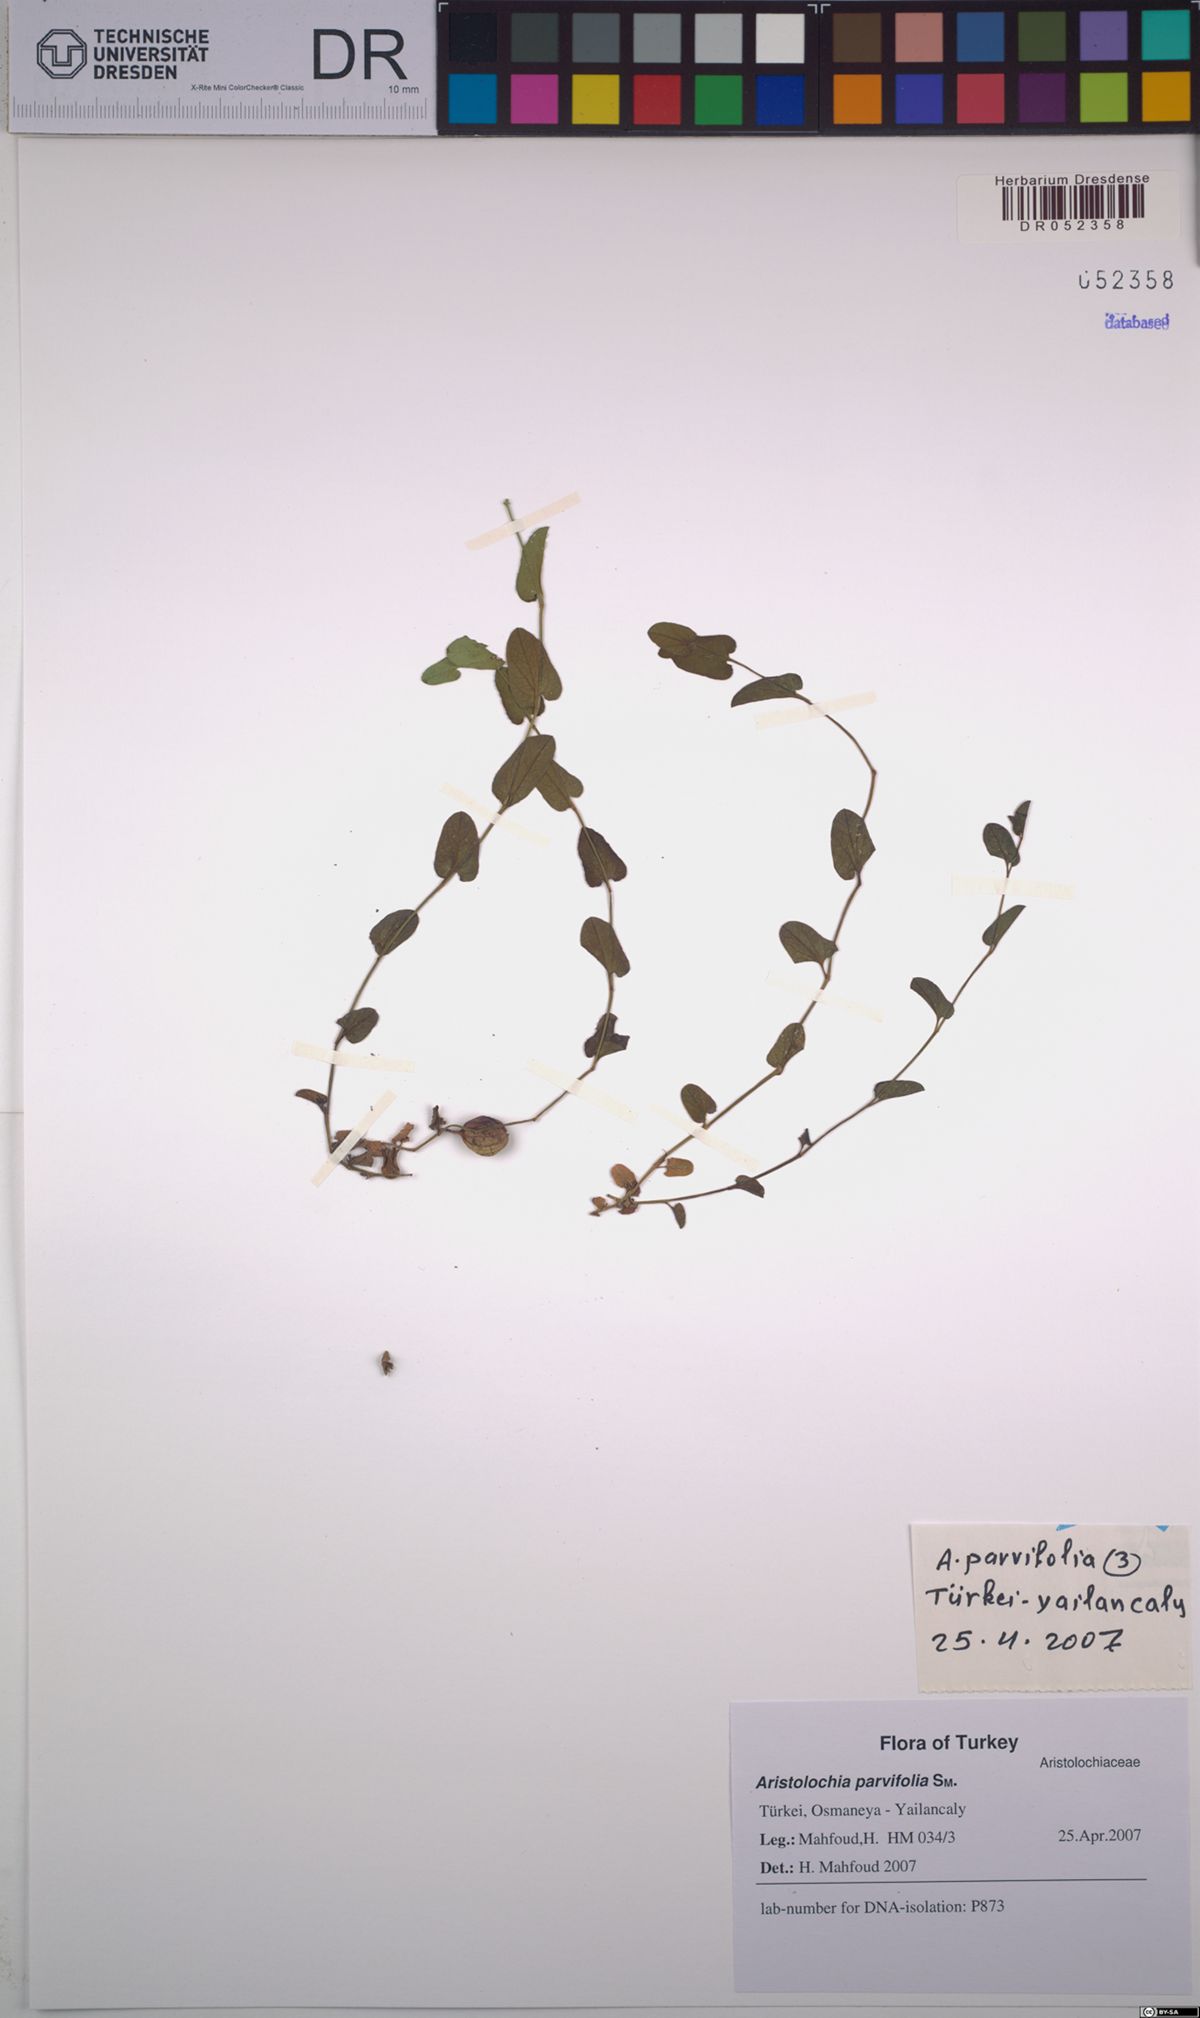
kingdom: Plantae
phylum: Tracheophyta
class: Magnoliopsida
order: Piperales
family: Aristolochiaceae
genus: Aristolochia
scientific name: Aristolochia parvifolia
